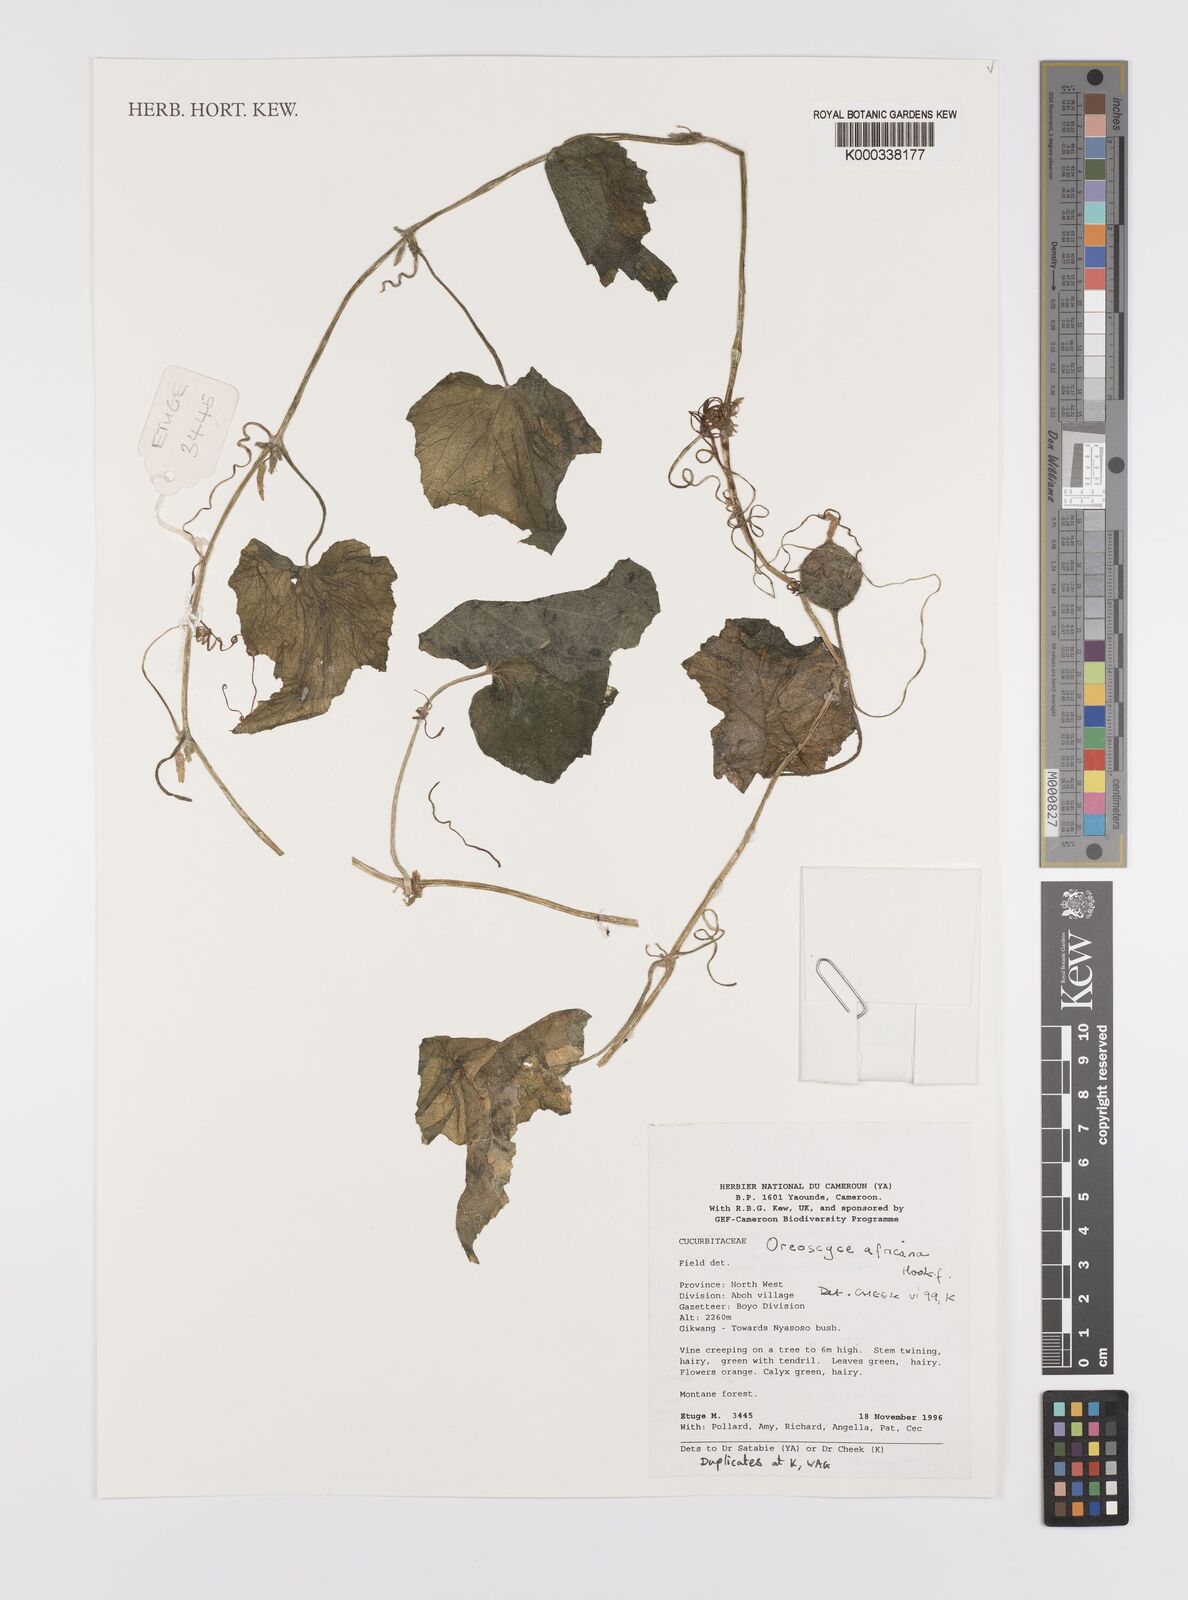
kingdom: Plantae
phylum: Tracheophyta
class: Magnoliopsida
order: Cucurbitales
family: Cucurbitaceae
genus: Cucumis
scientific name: Cucumis oreosyce
